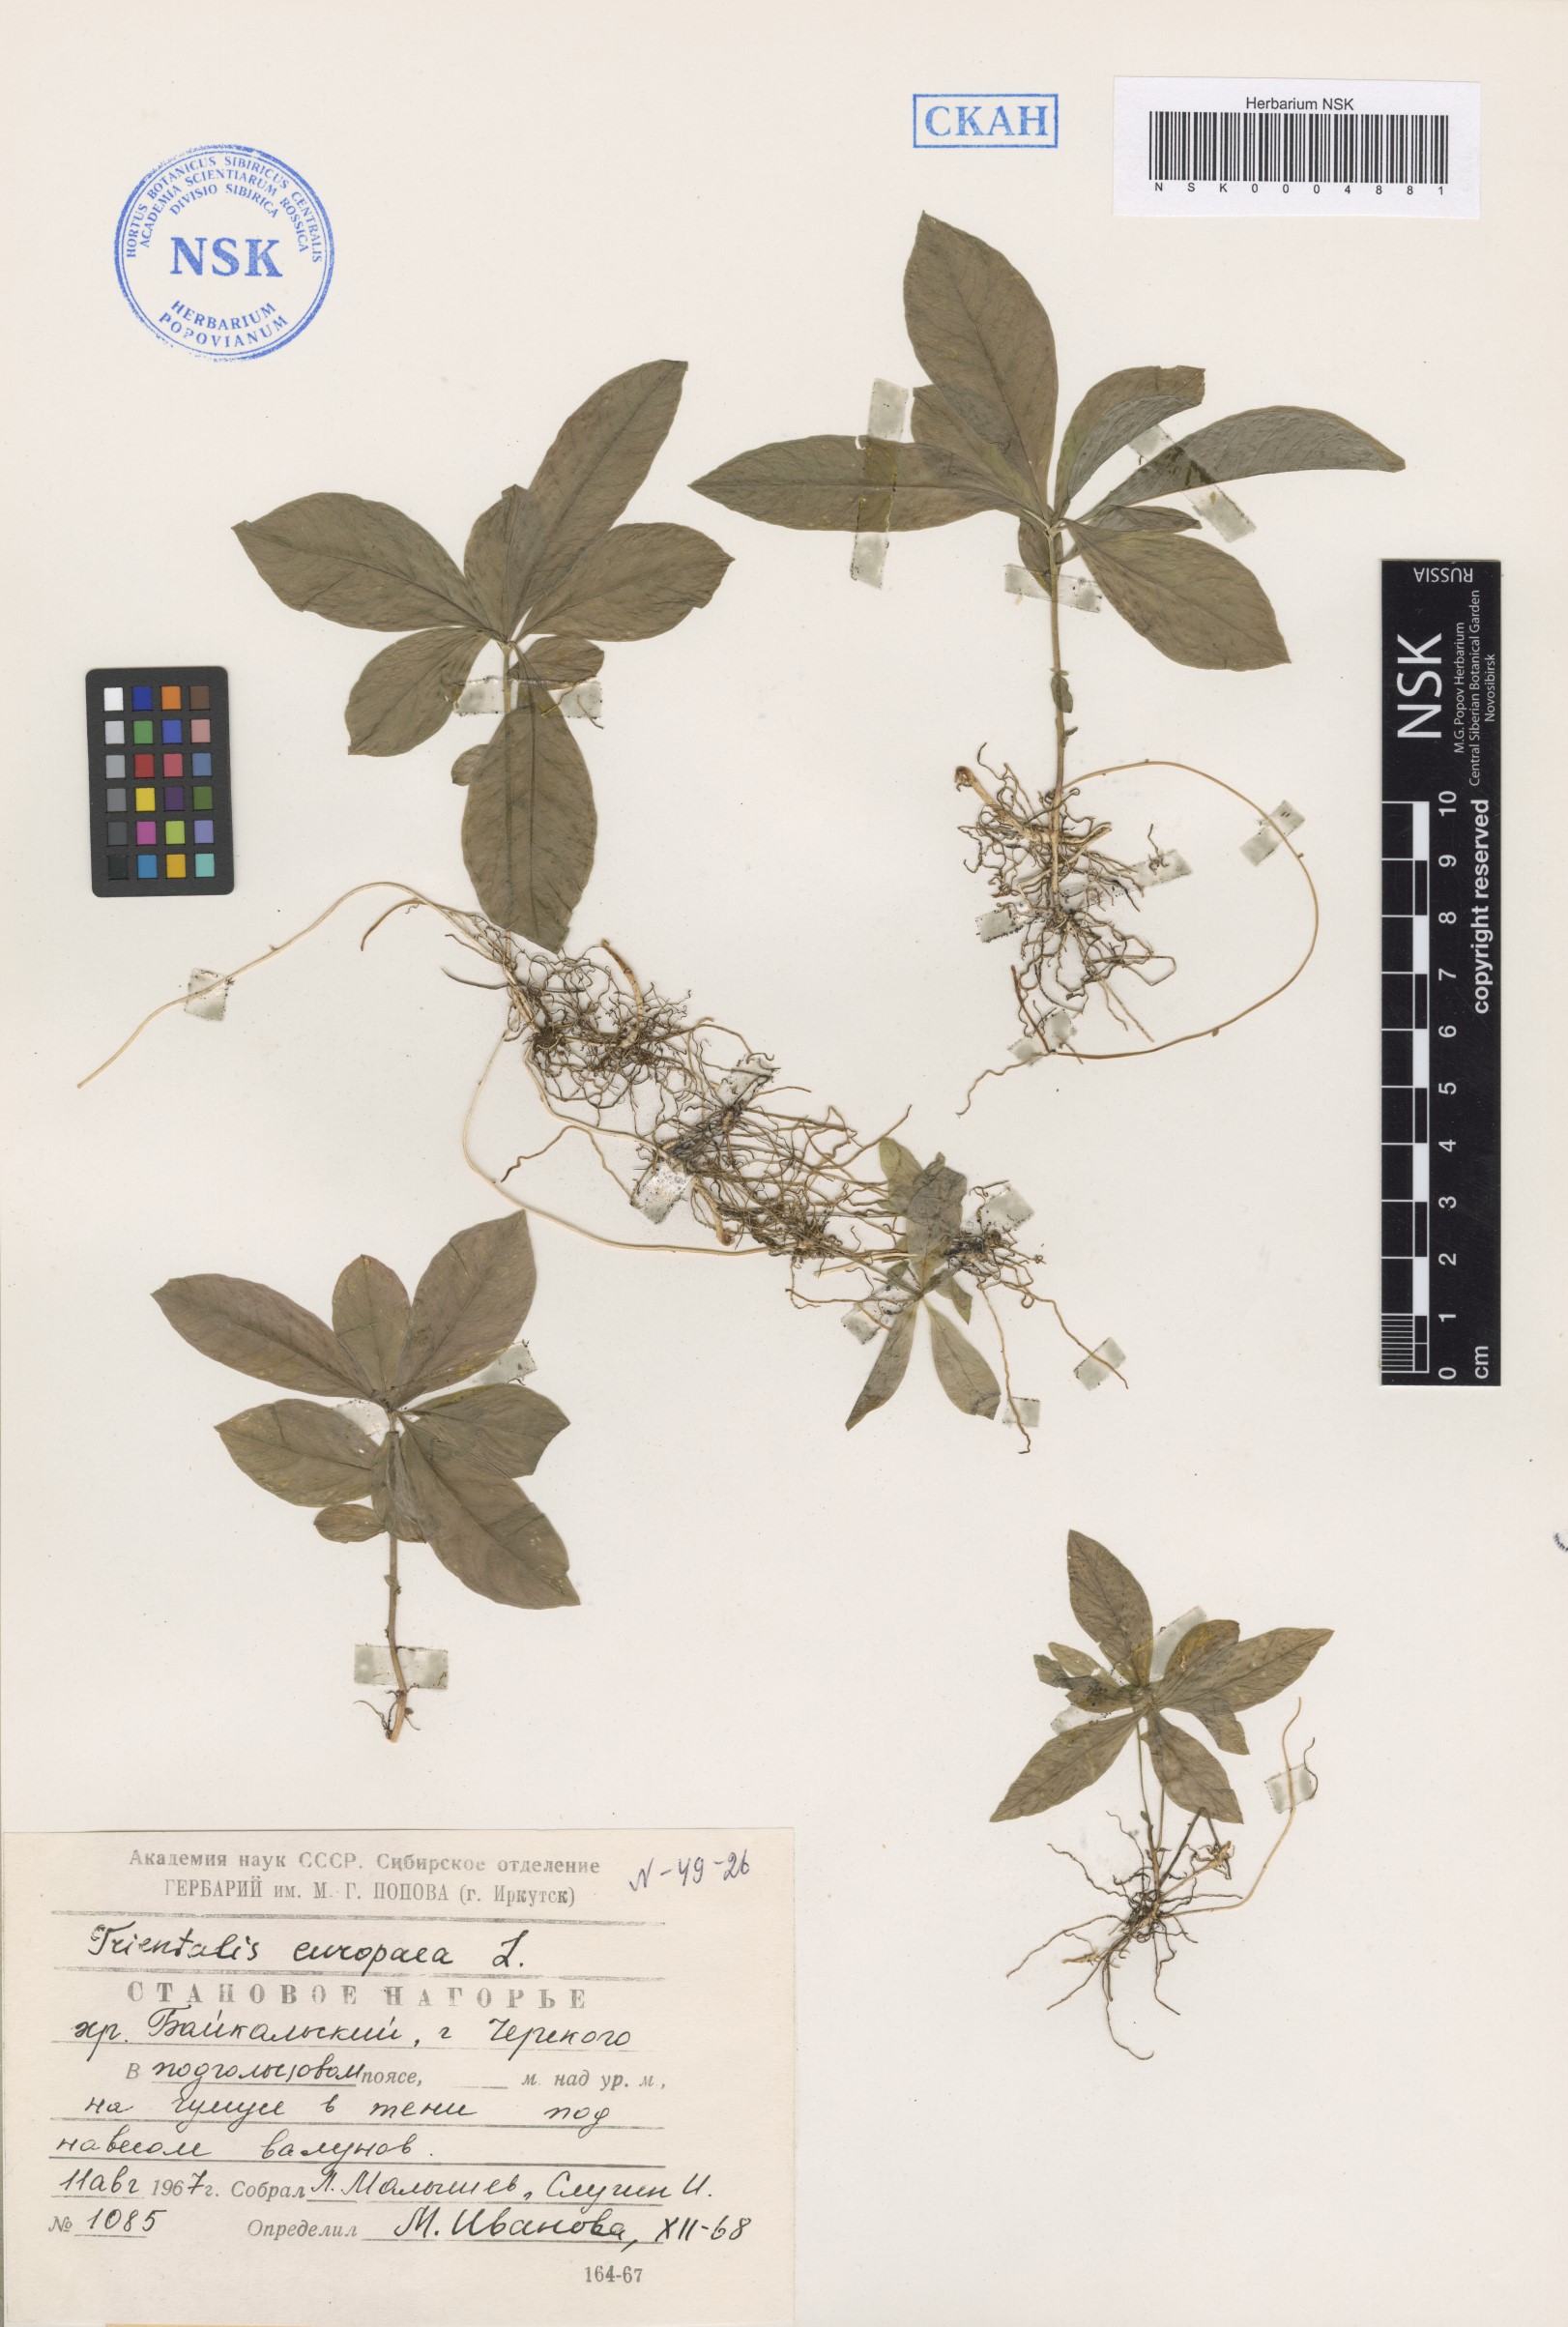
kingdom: Plantae
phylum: Tracheophyta
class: Magnoliopsida
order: Ericales
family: Primulaceae
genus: Lysimachia
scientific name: Lysimachia europaea
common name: Arctic starflower
